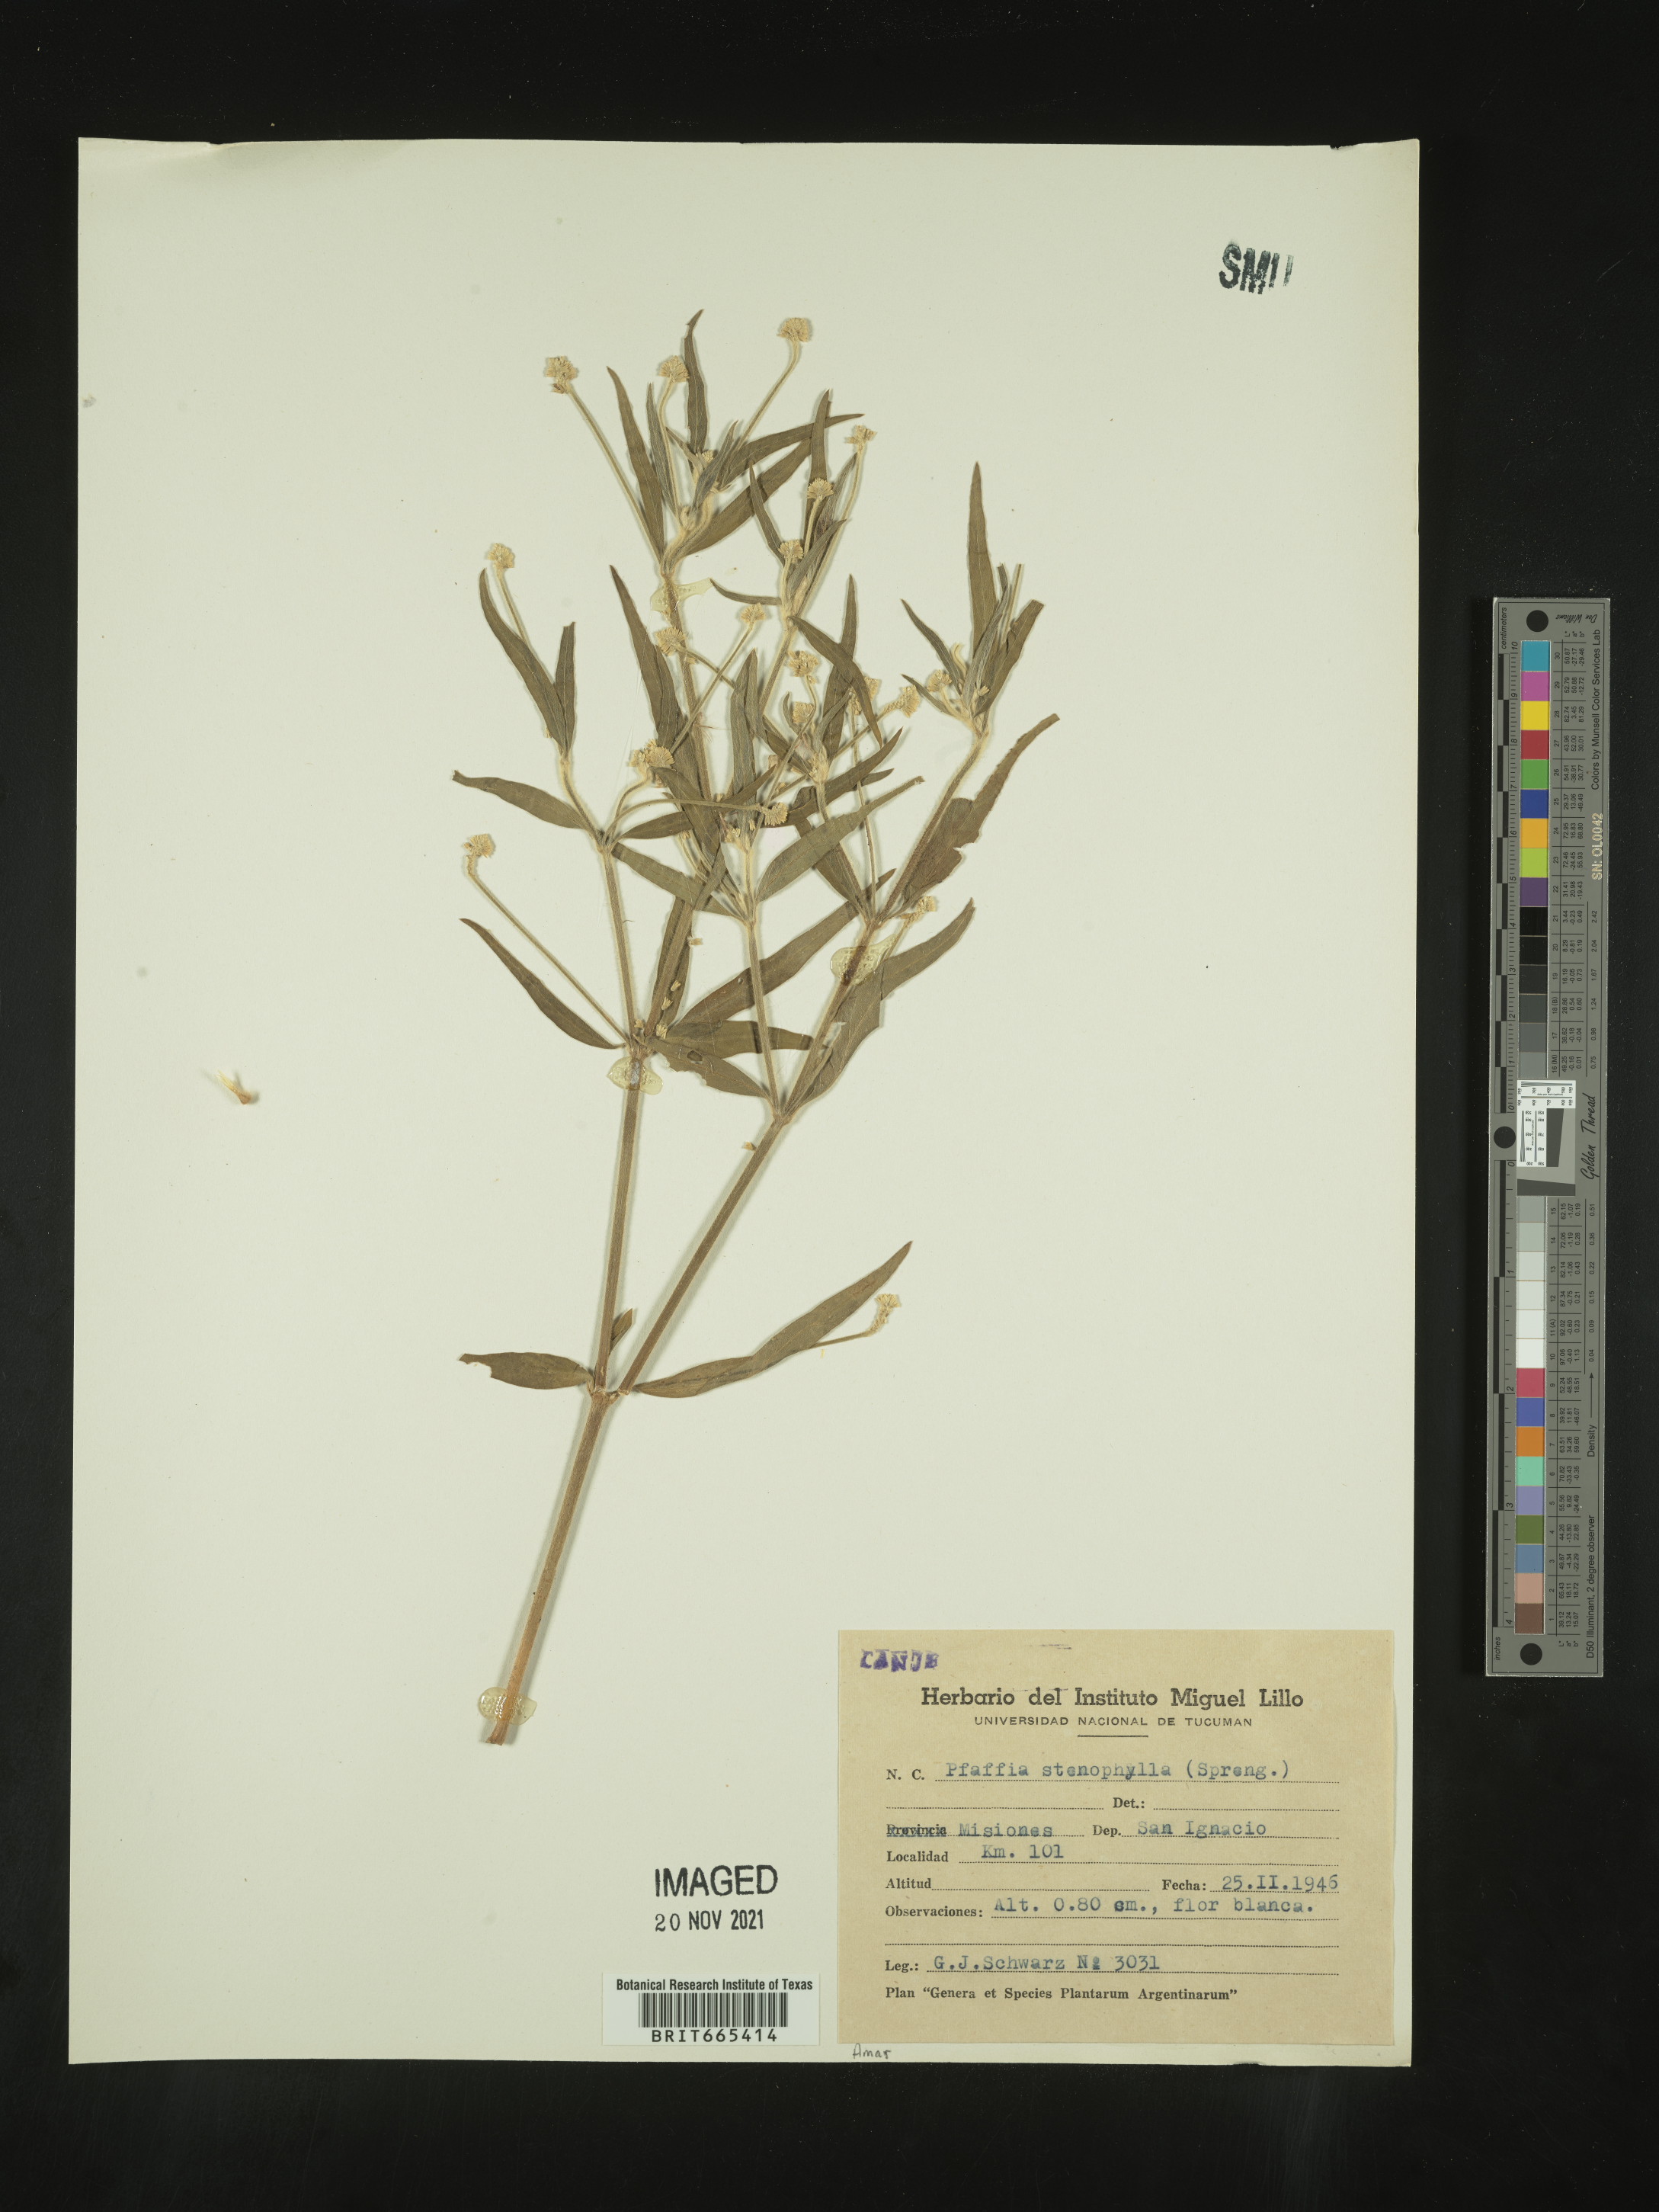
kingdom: Plantae
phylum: Tracheophyta
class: Magnoliopsida
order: Caryophyllales
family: Amaranthaceae
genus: Pfaffia
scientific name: Pfaffia
